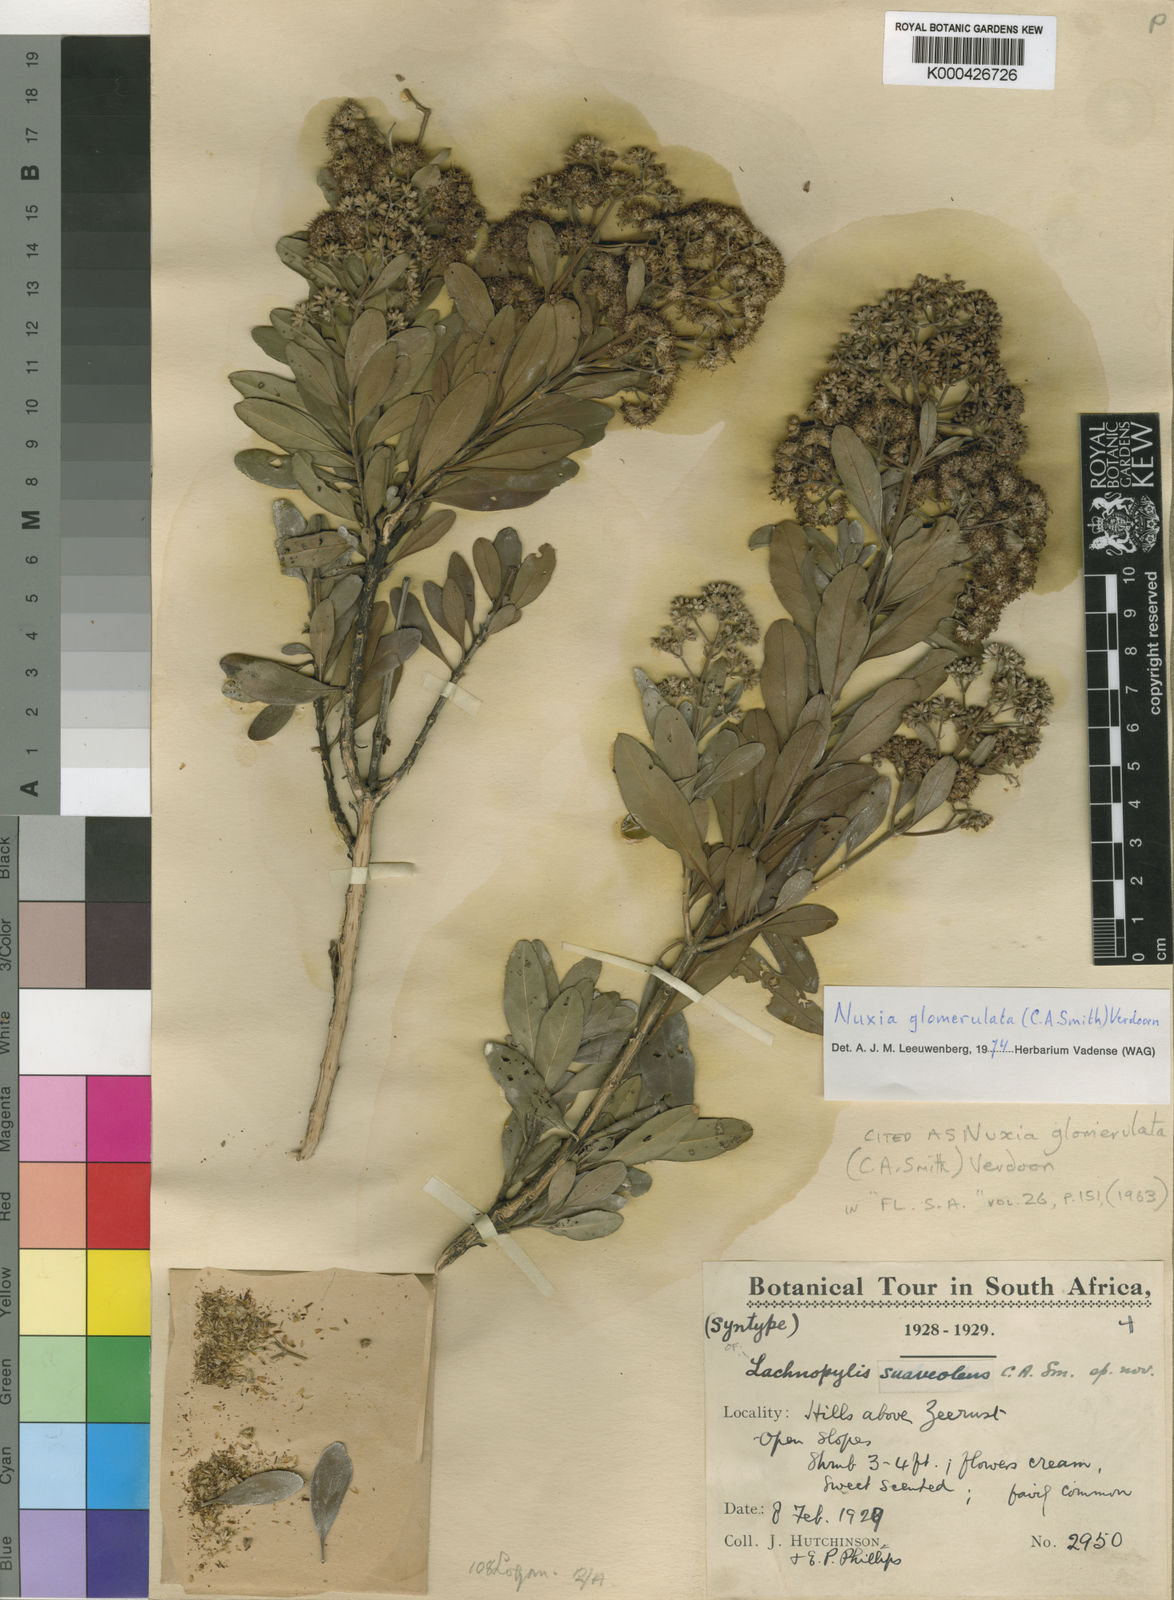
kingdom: Plantae
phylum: Tracheophyta
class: Magnoliopsida
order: Lamiales
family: Stilbaceae
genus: Nuxia
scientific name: Nuxia glomerulata
